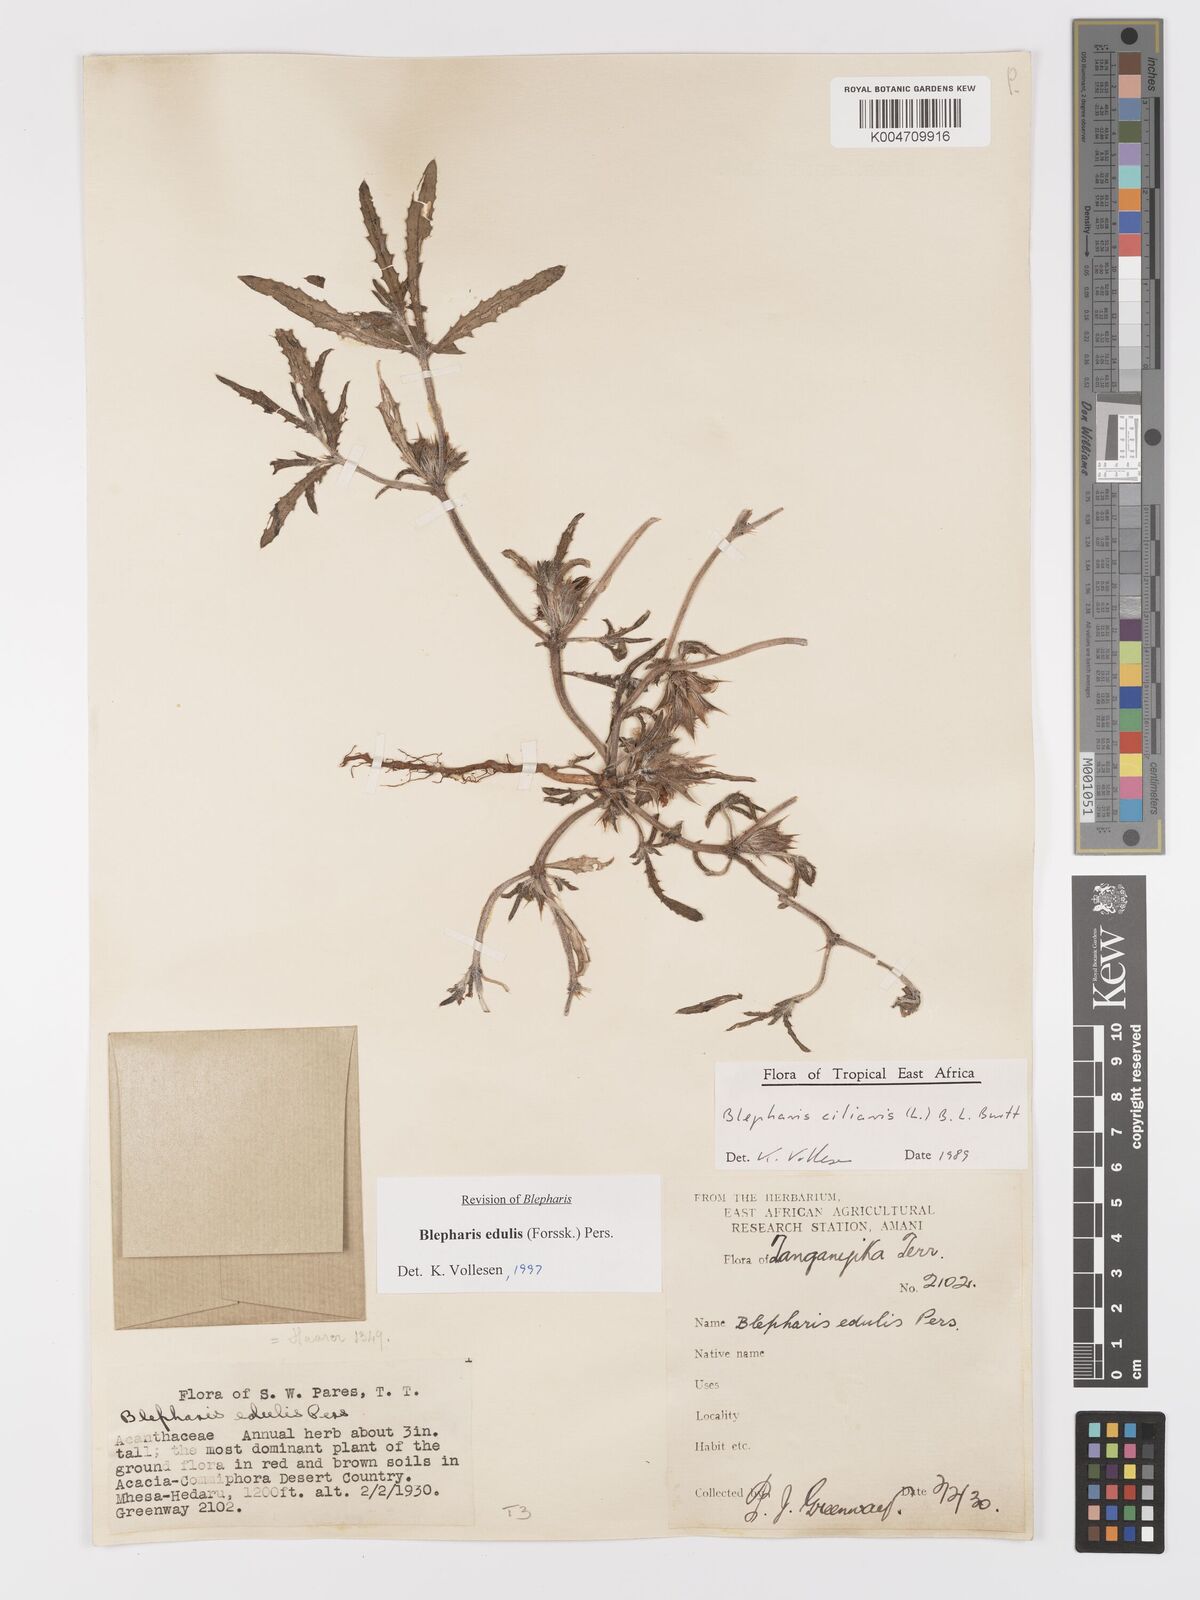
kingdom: Plantae
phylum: Tracheophyta
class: Magnoliopsida
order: Lamiales
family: Acanthaceae
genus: Blepharis
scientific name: Blepharis edulis
